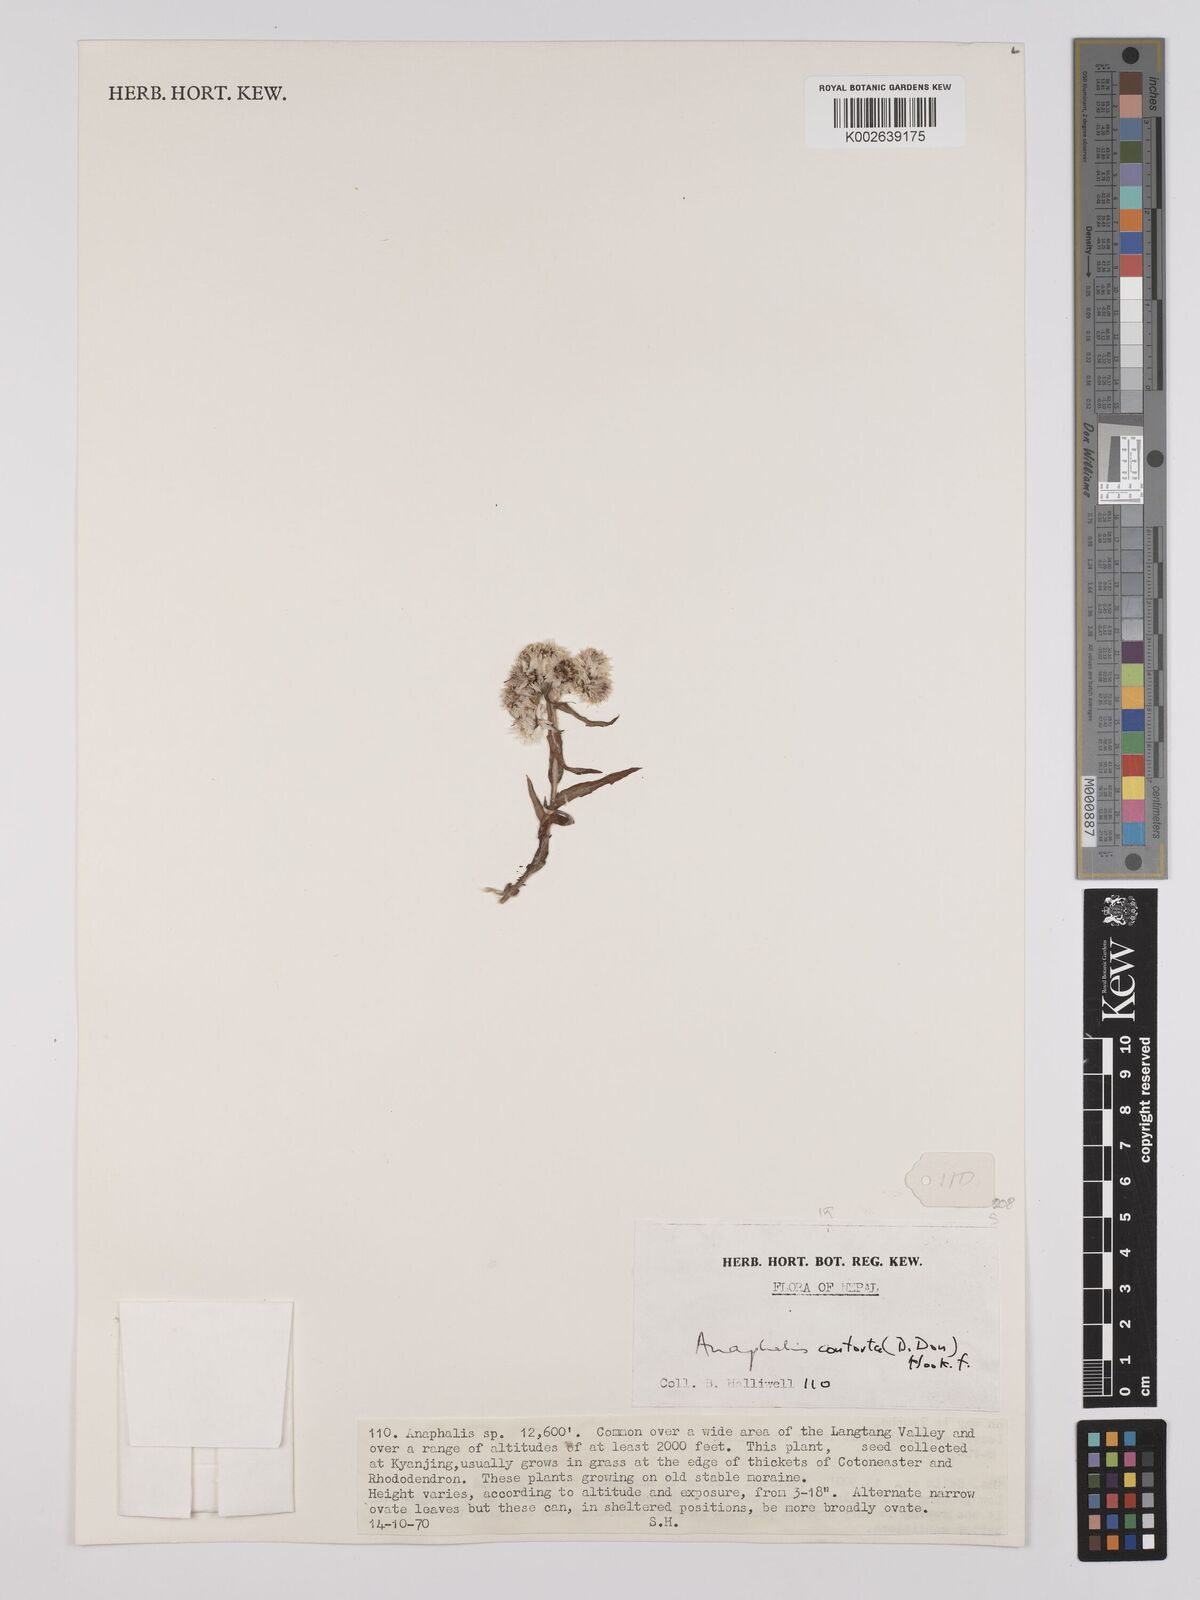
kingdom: Plantae
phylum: Tracheophyta
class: Magnoliopsida
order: Asterales
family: Asteraceae
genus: Anaphalis
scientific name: Anaphalis contorta
